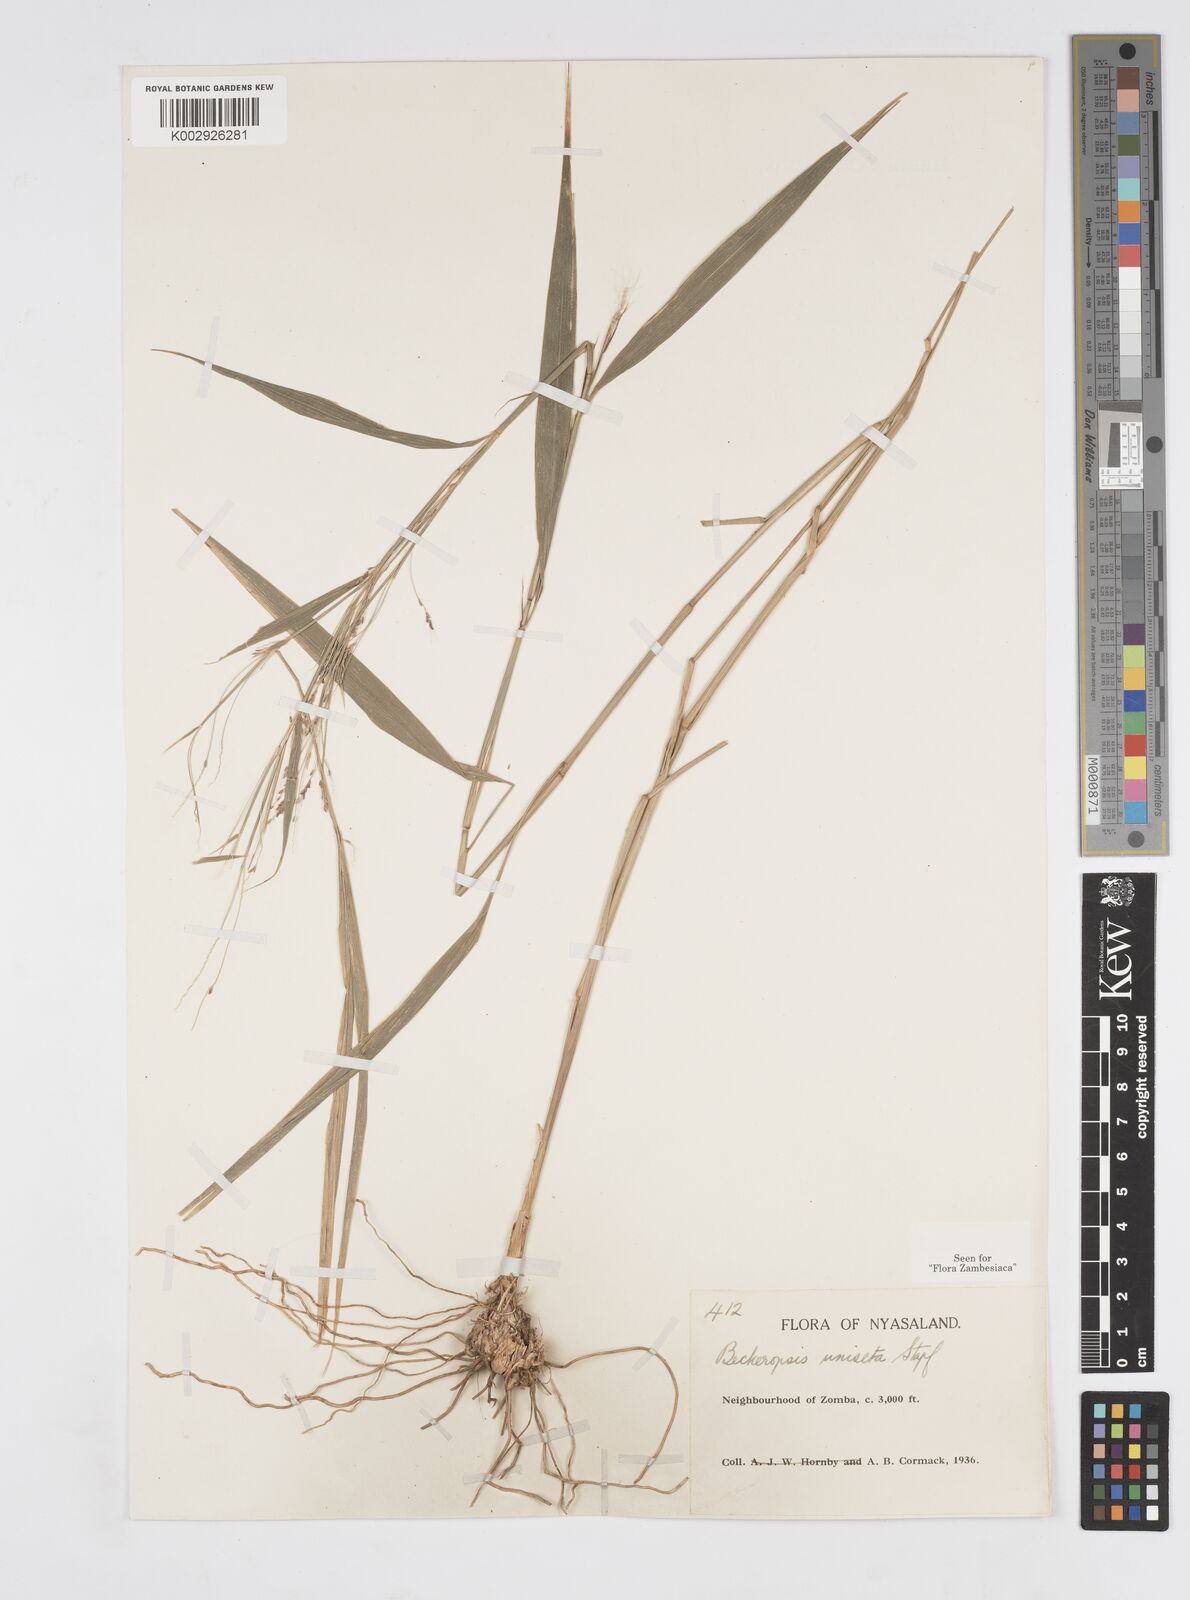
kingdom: Plantae
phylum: Tracheophyta
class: Liliopsida
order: Poales
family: Poaceae
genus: Cenchrus
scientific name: Cenchrus unisetus
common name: Natal grass
